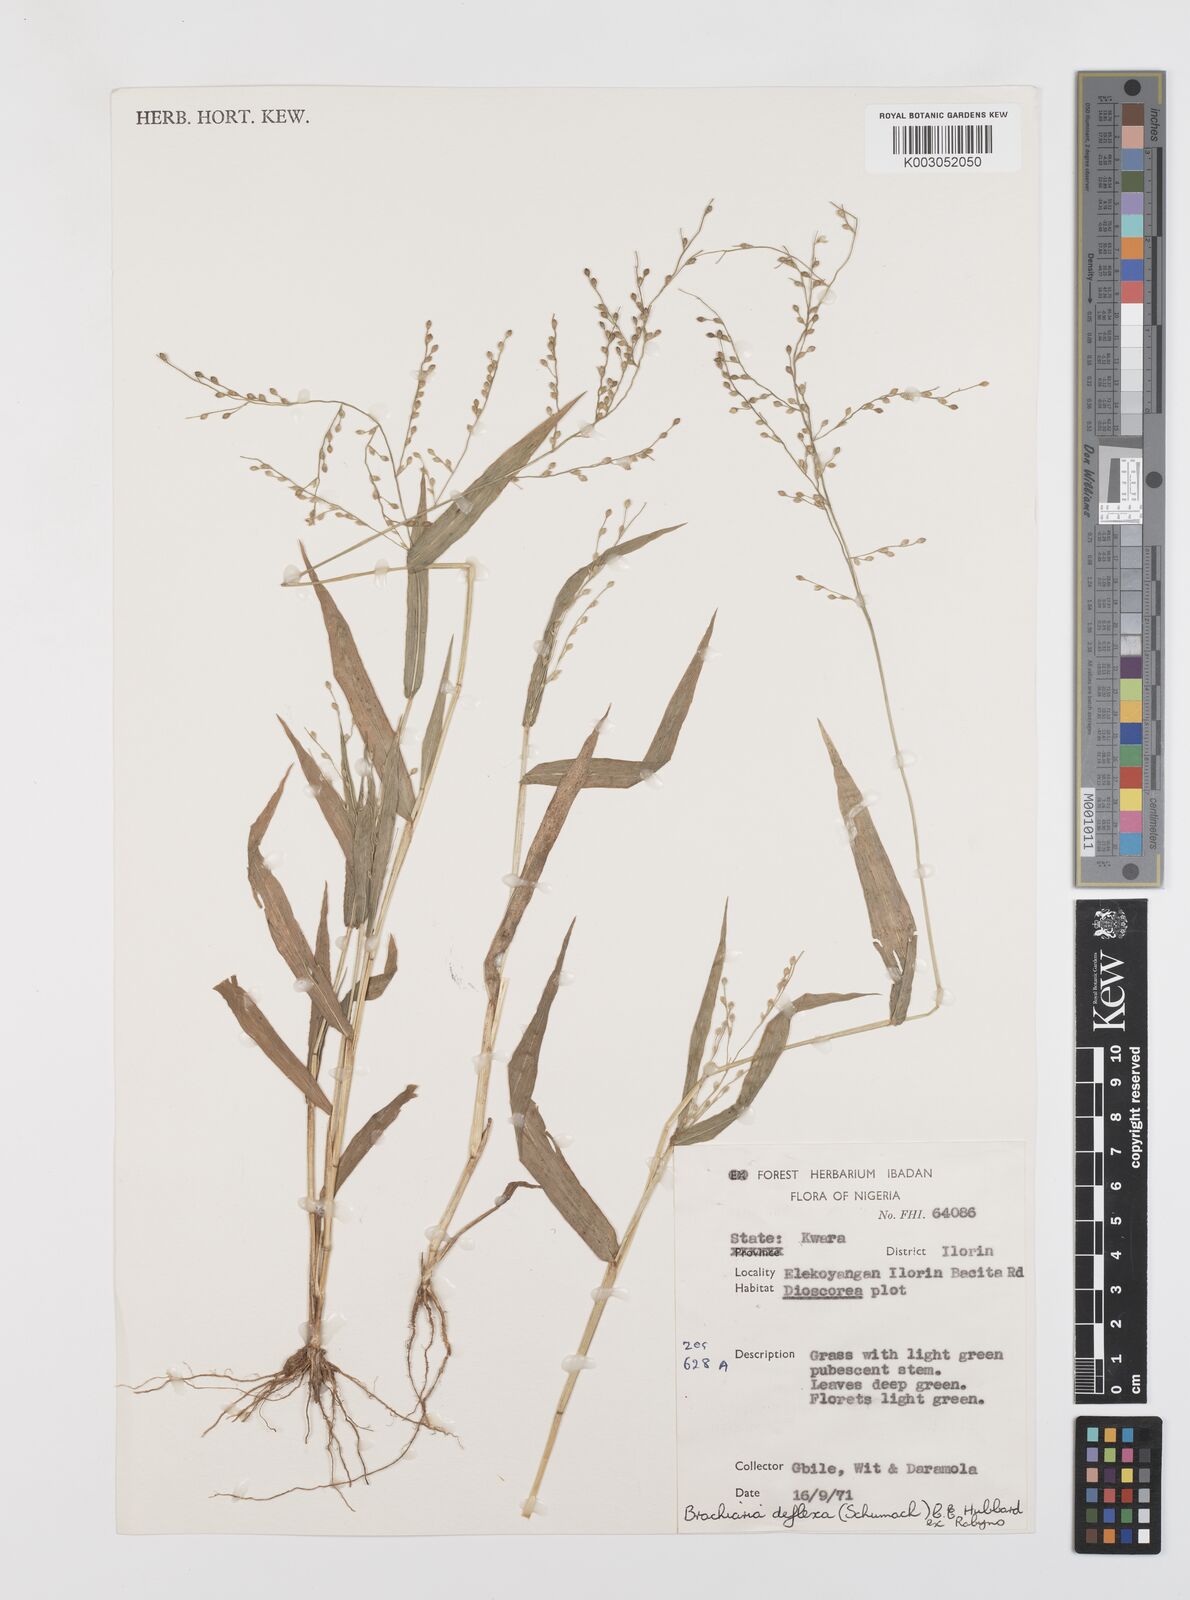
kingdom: Plantae
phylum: Tracheophyta
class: Liliopsida
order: Poales
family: Poaceae
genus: Urochloa
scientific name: Urochloa deflexa
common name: Guinea millet
